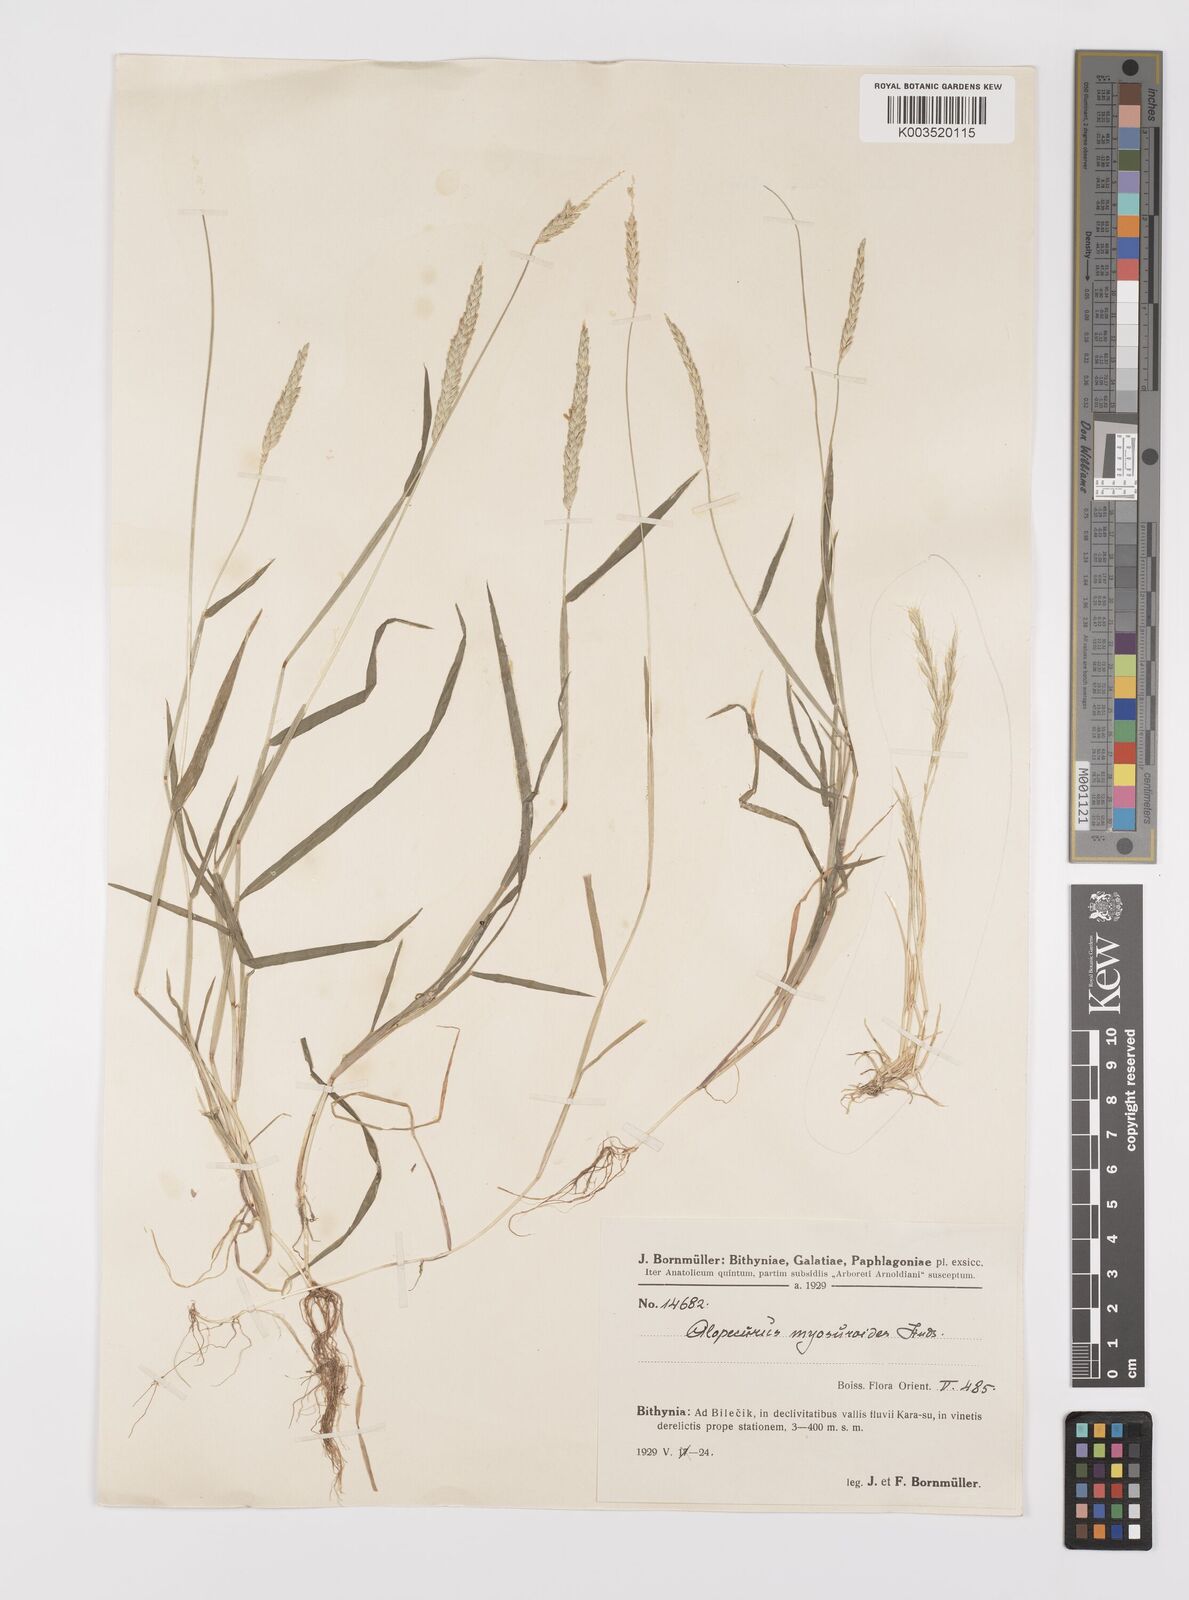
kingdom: Plantae
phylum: Tracheophyta
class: Liliopsida
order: Poales
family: Poaceae
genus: Alopecurus
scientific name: Alopecurus myosuroides
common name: Black-grass
